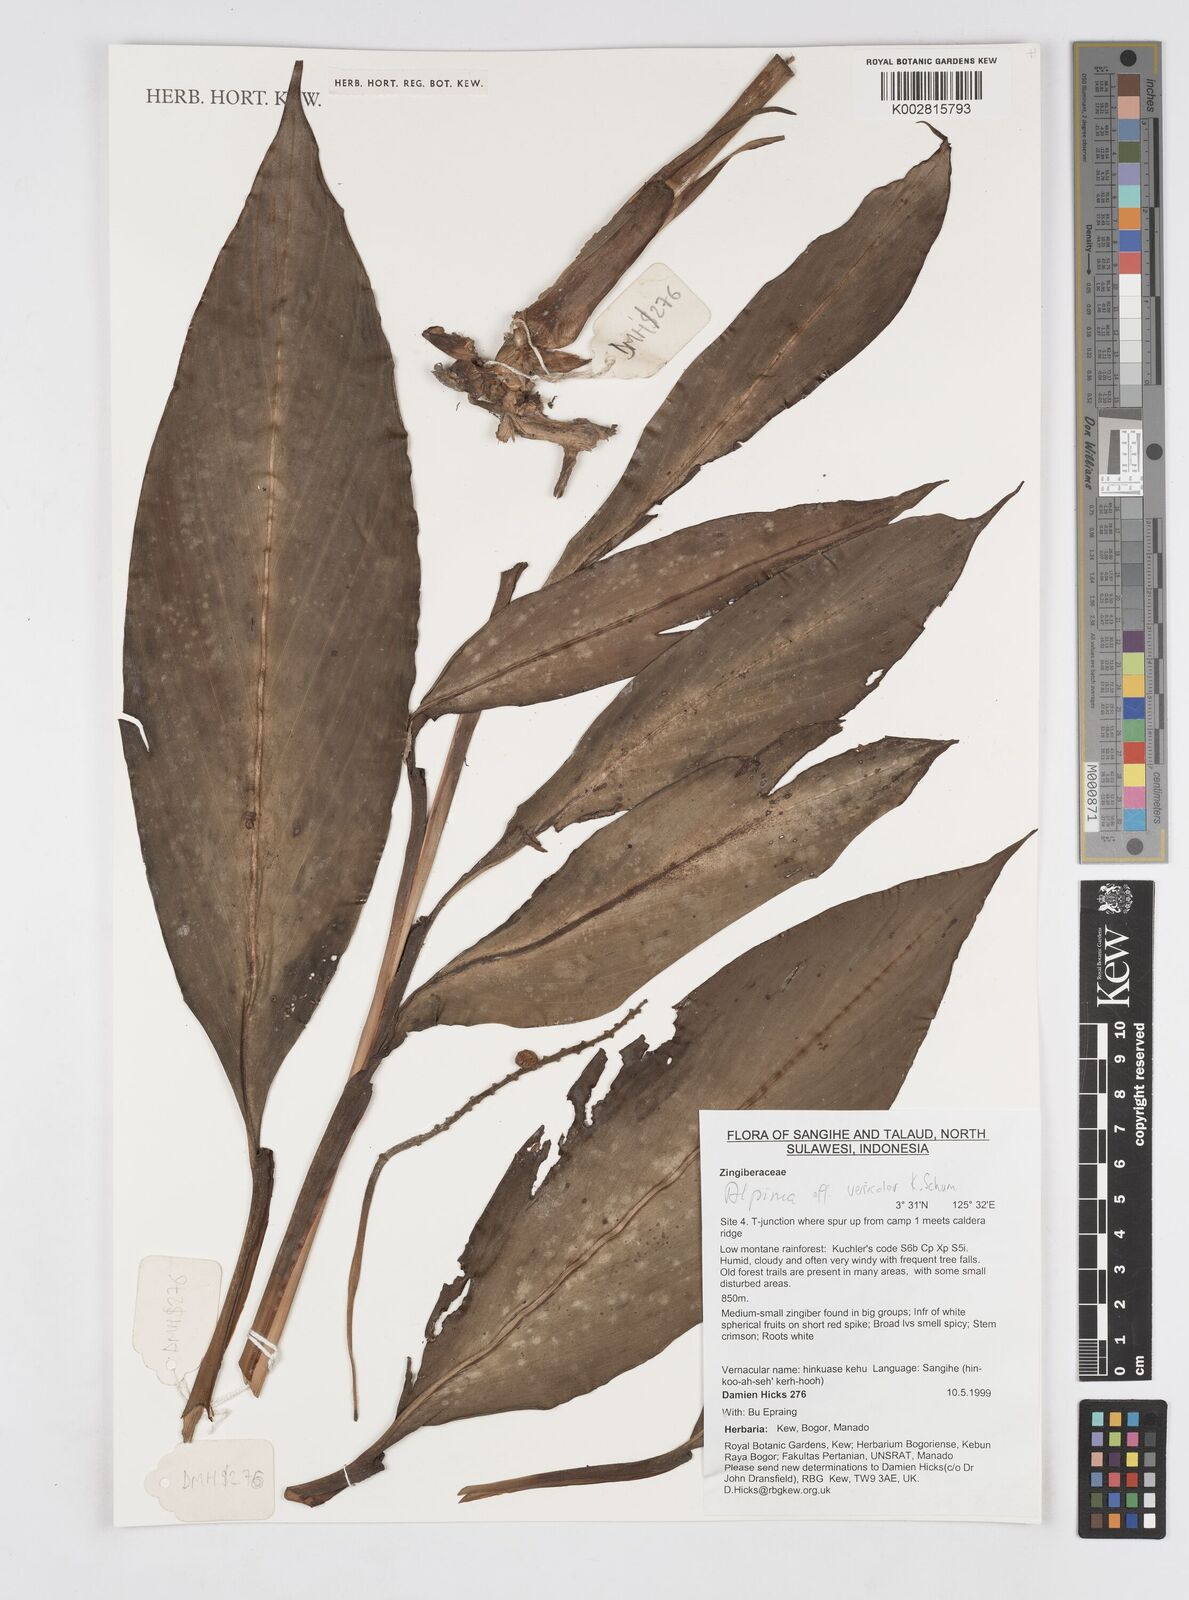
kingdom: Plantae
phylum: Tracheophyta
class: Liliopsida
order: Zingiberales
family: Zingiberaceae
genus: Alpinia
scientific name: Alpinia versicolor
